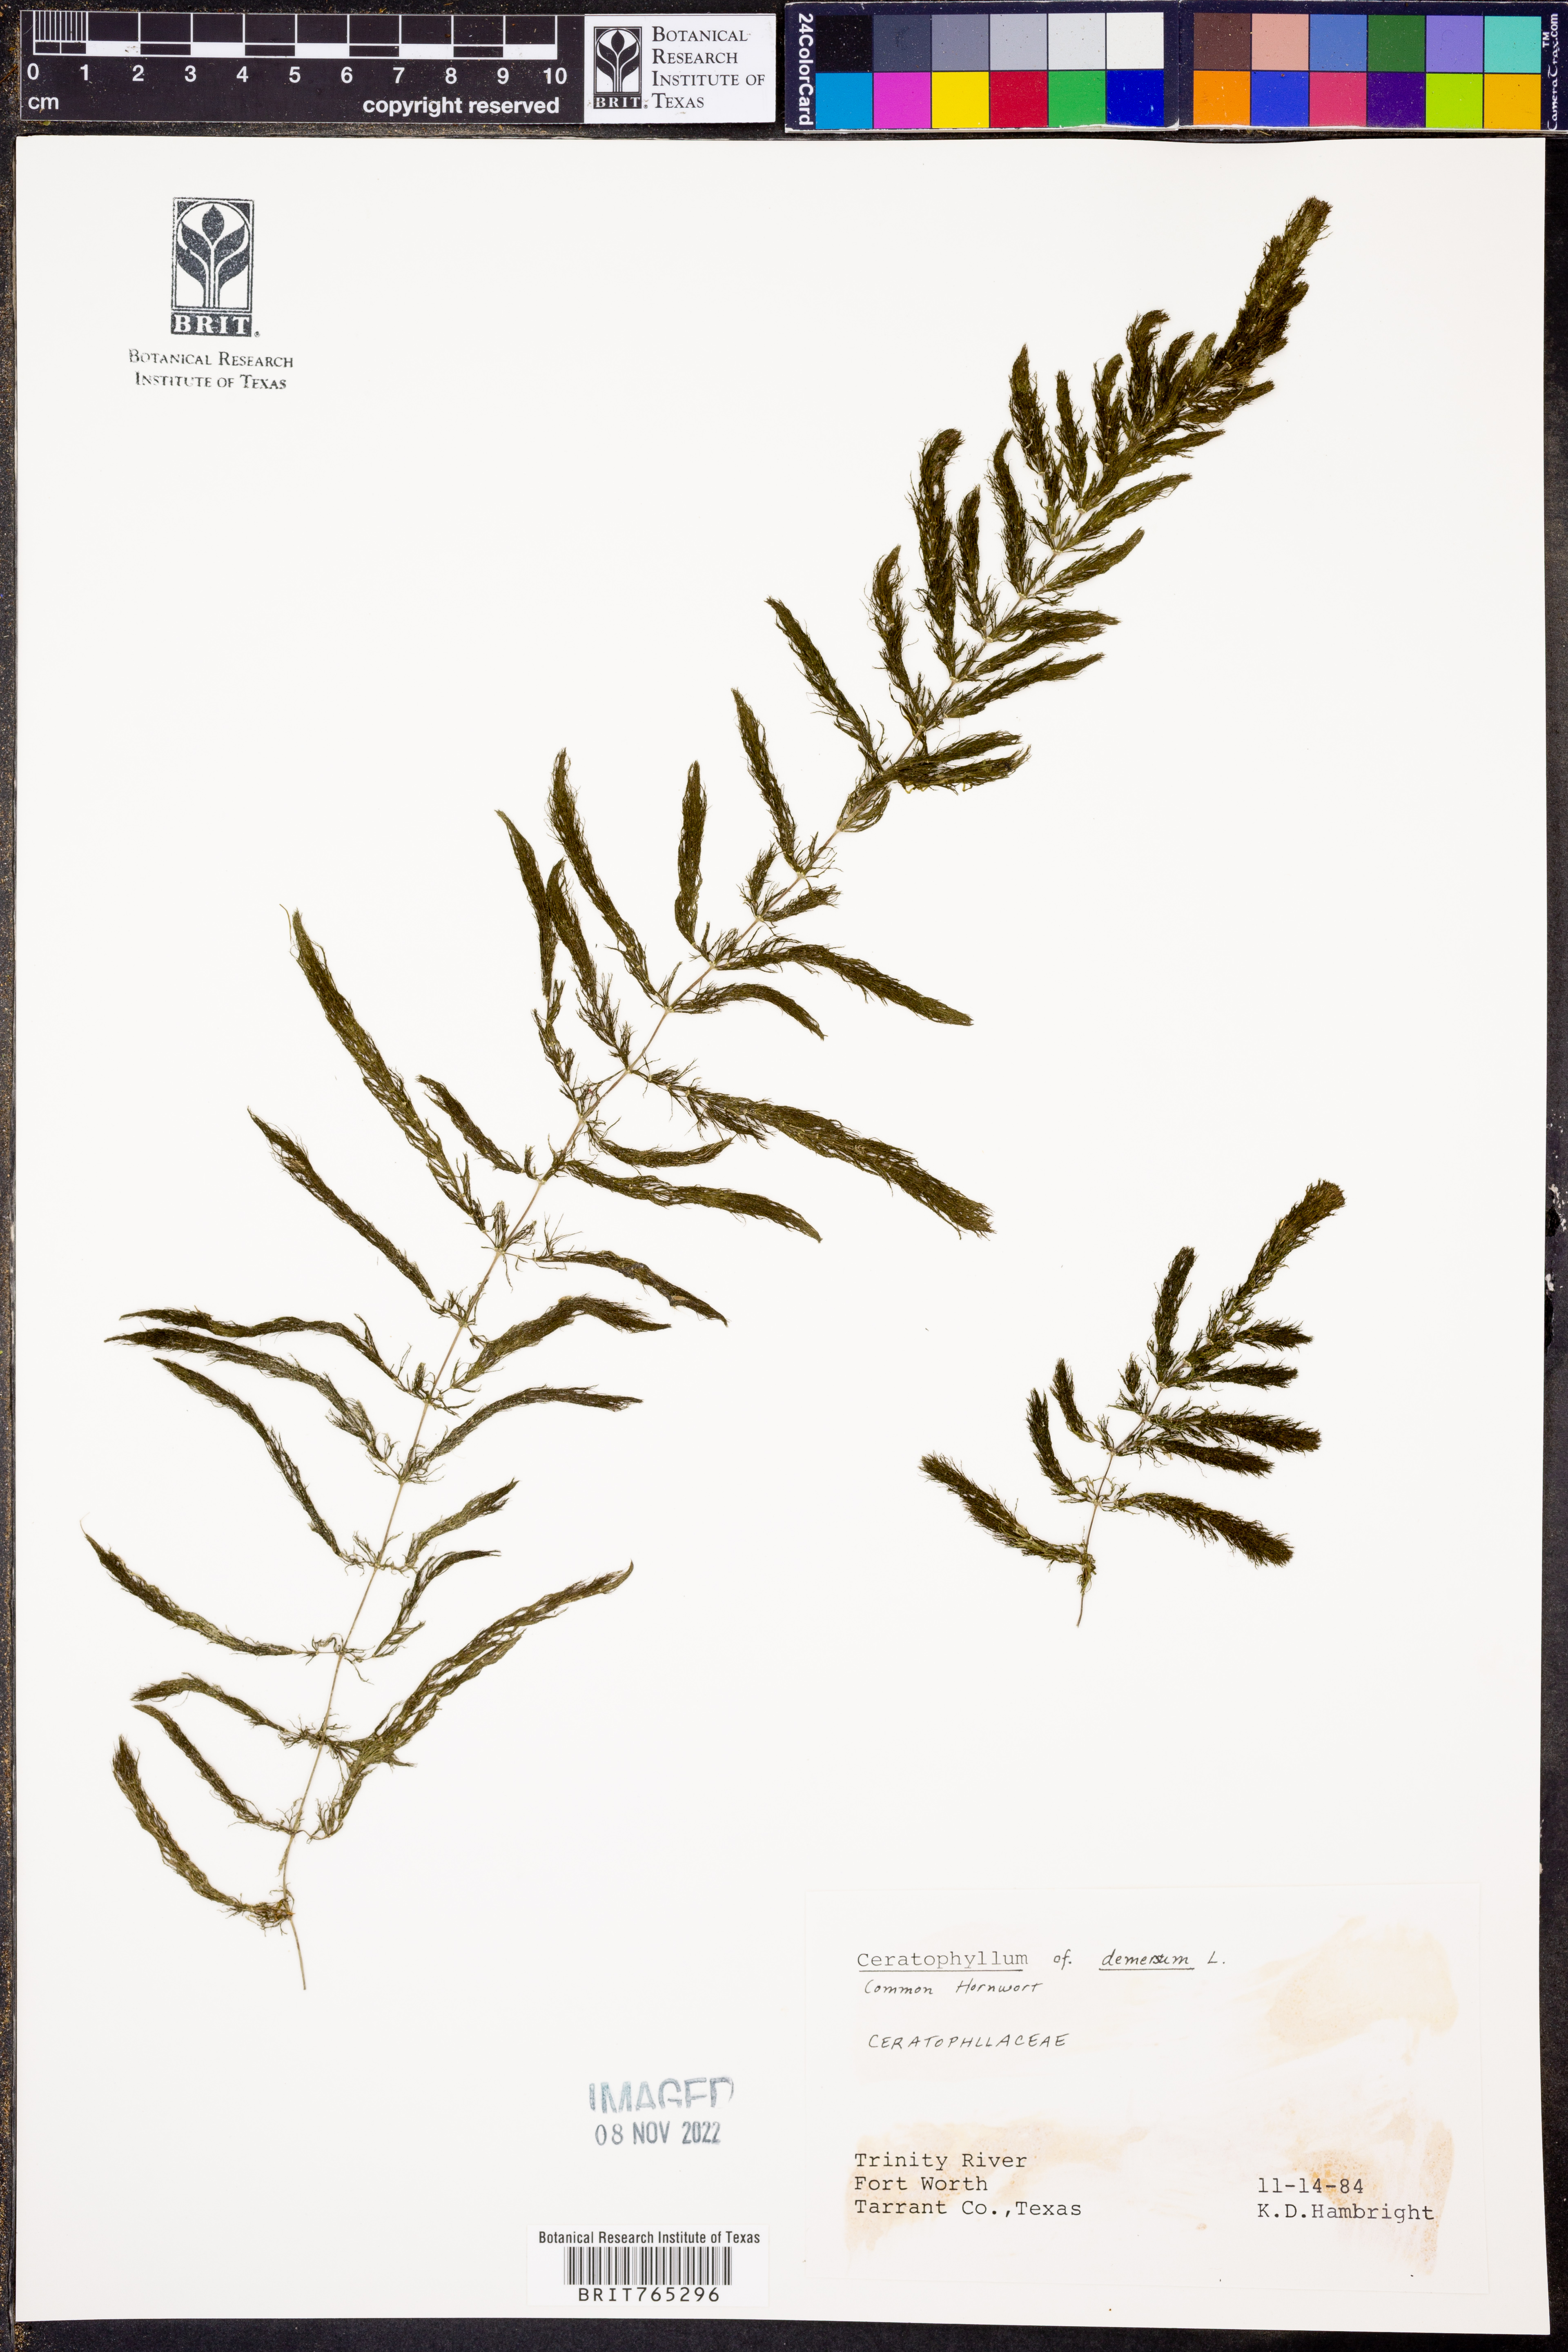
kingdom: Plantae
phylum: Tracheophyta
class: Magnoliopsida
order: Ceratophyllales
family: Ceratophyllaceae
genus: Ceratophyllum
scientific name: Ceratophyllum demersum
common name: Rigid hornwort
